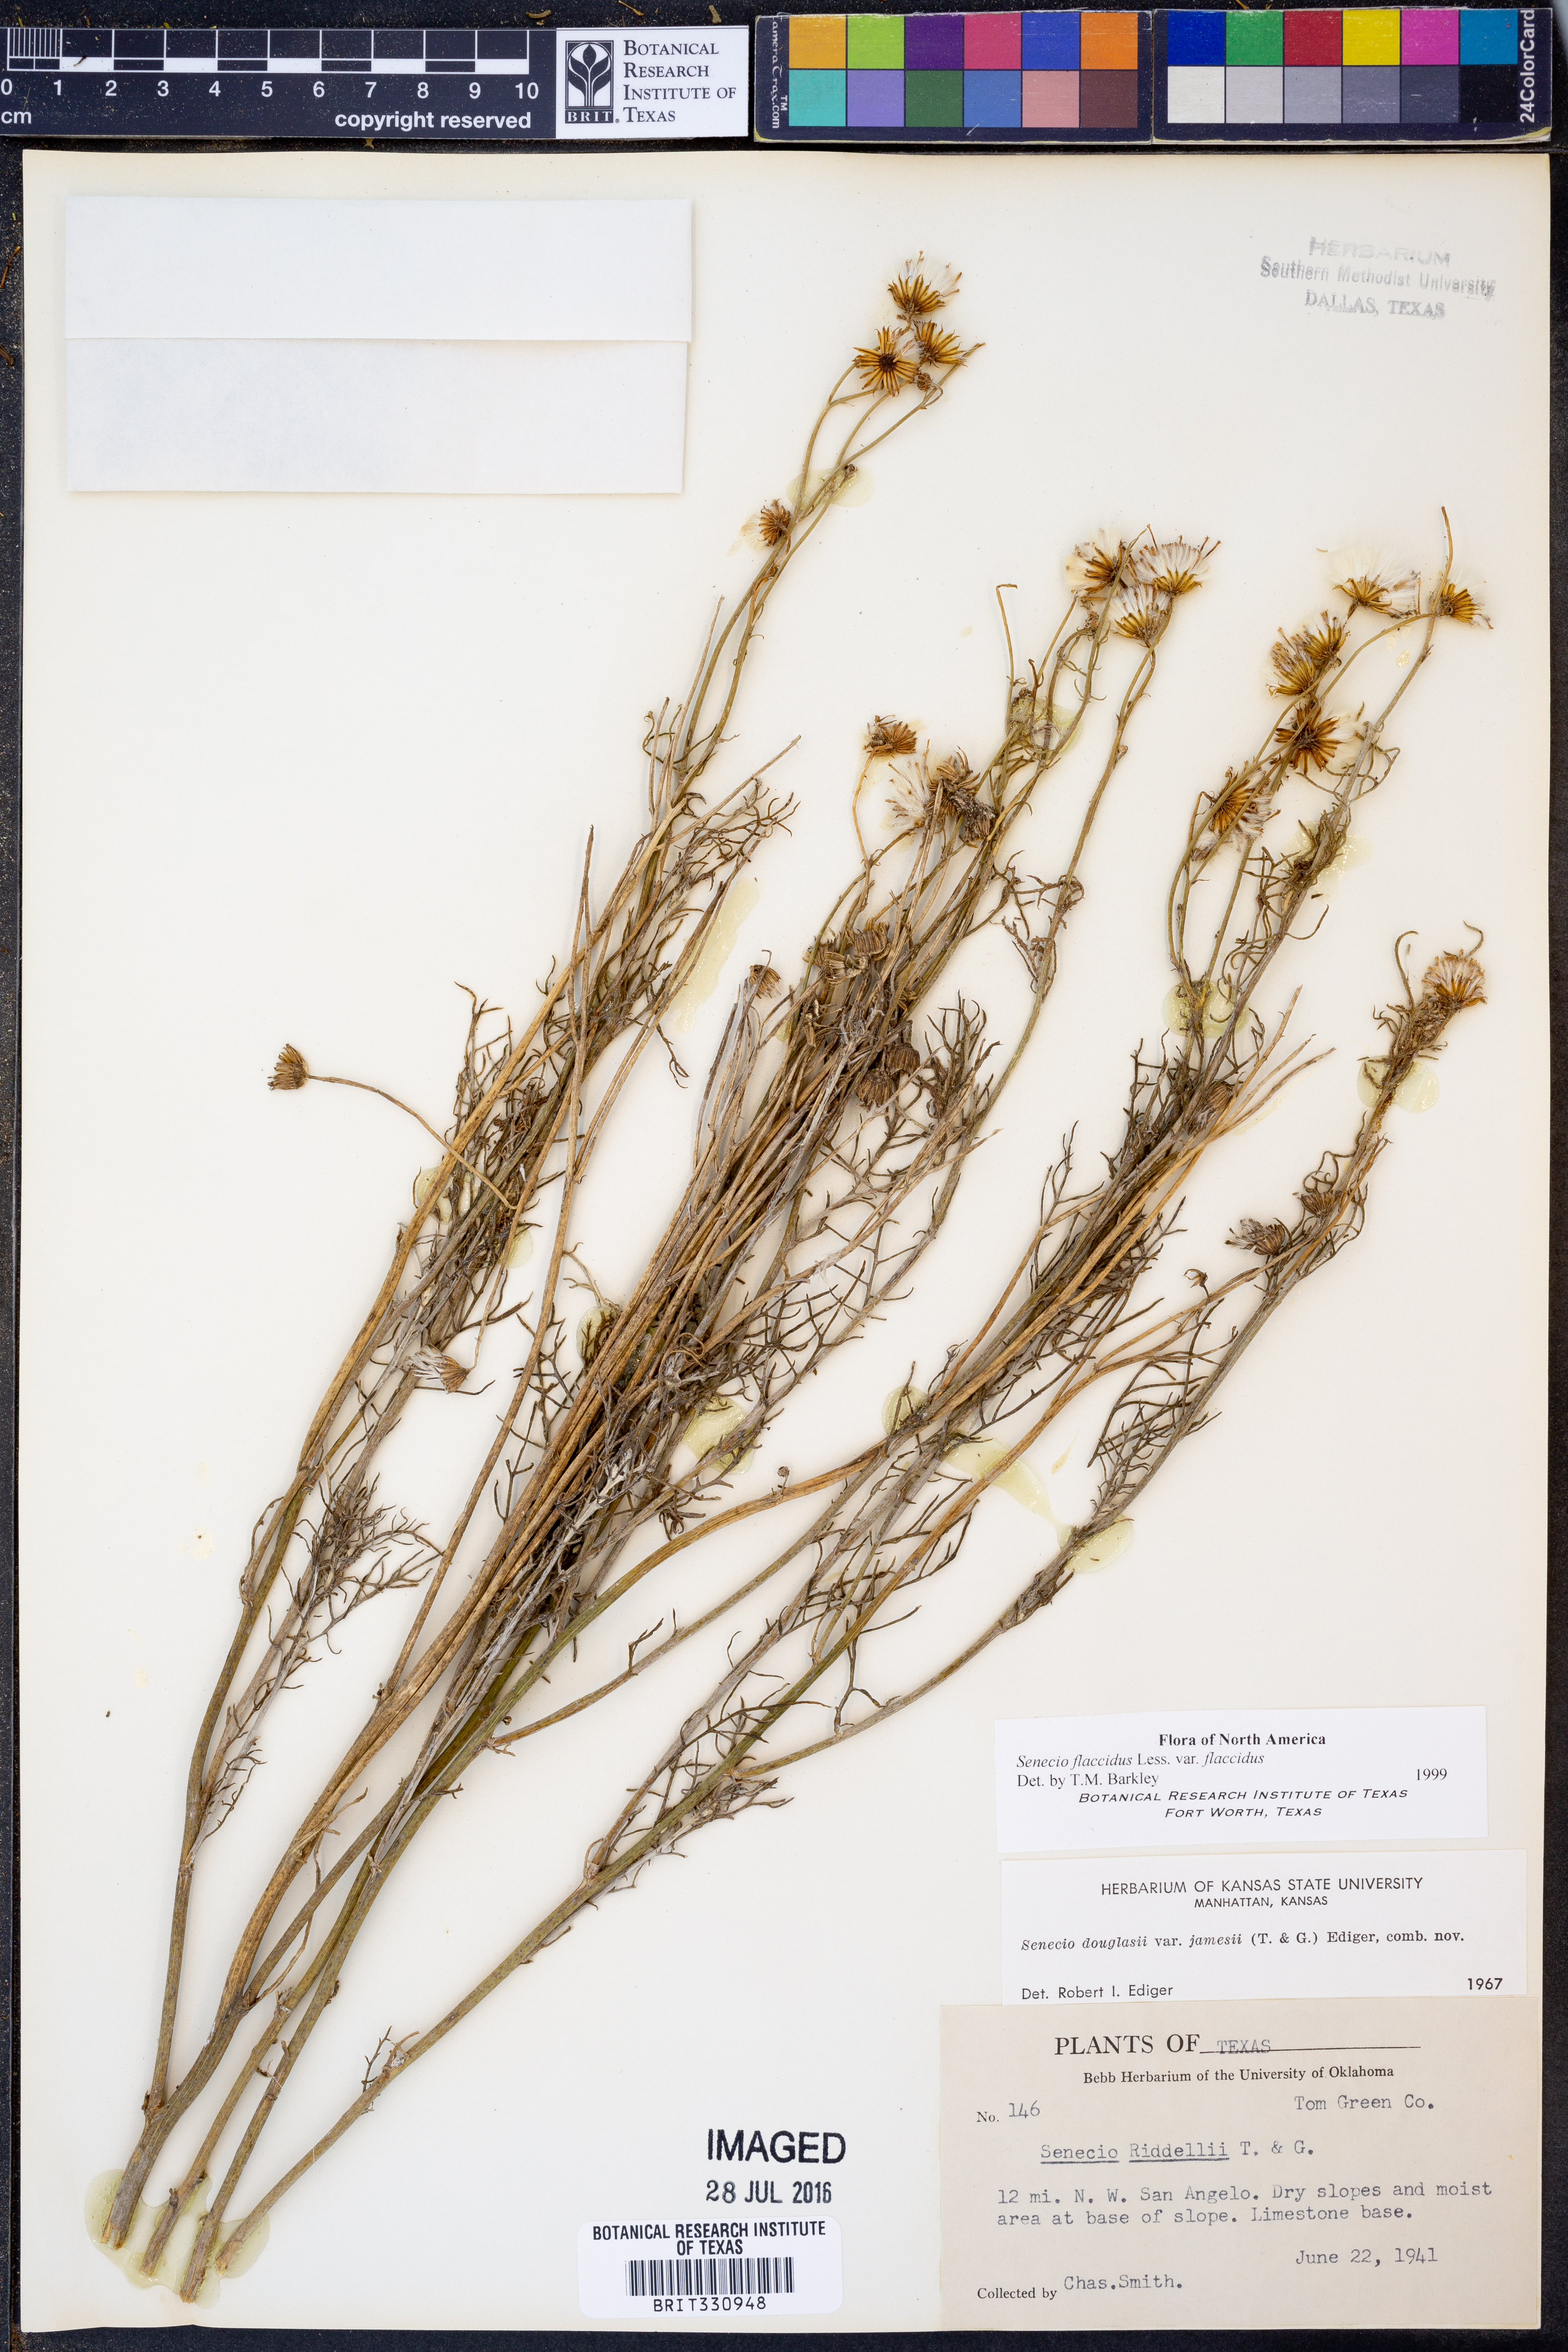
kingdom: Plantae
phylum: Tracheophyta
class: Magnoliopsida
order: Asterales
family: Asteraceae
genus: Senecio
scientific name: Senecio flaccidus
